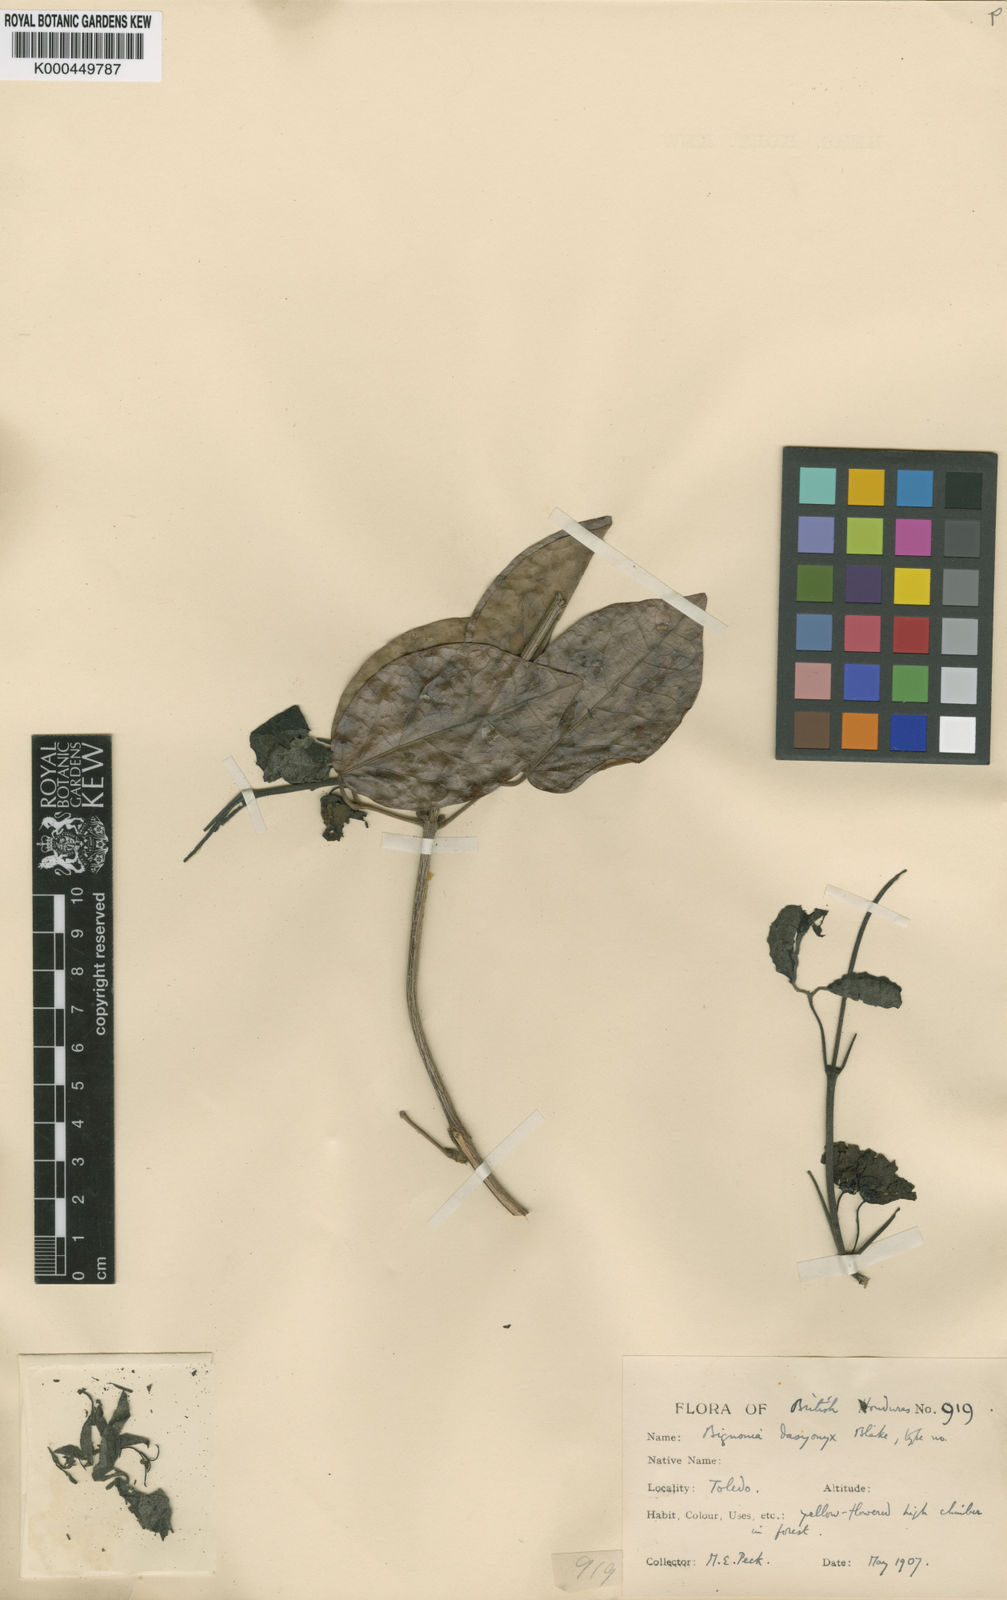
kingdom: Plantae
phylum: Tracheophyta
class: Magnoliopsida
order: Lamiales
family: Bignoniaceae
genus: Dolichandra
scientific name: Dolichandra unguis-cati
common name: Catclaw vine
